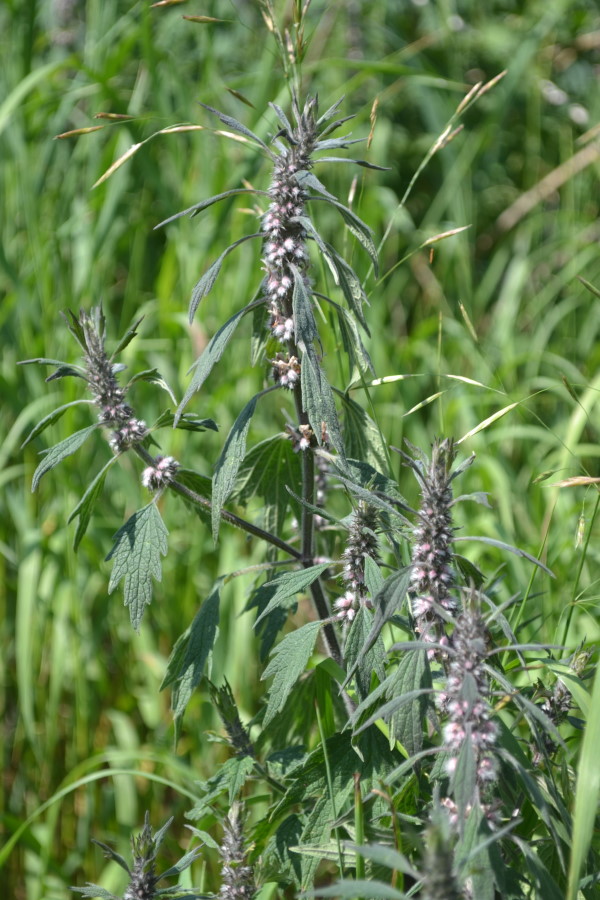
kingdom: Plantae
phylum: Tracheophyta
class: Magnoliopsida
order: Lamiales
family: Lamiaceae
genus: Leonurus
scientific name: Leonurus quinquelobatus
